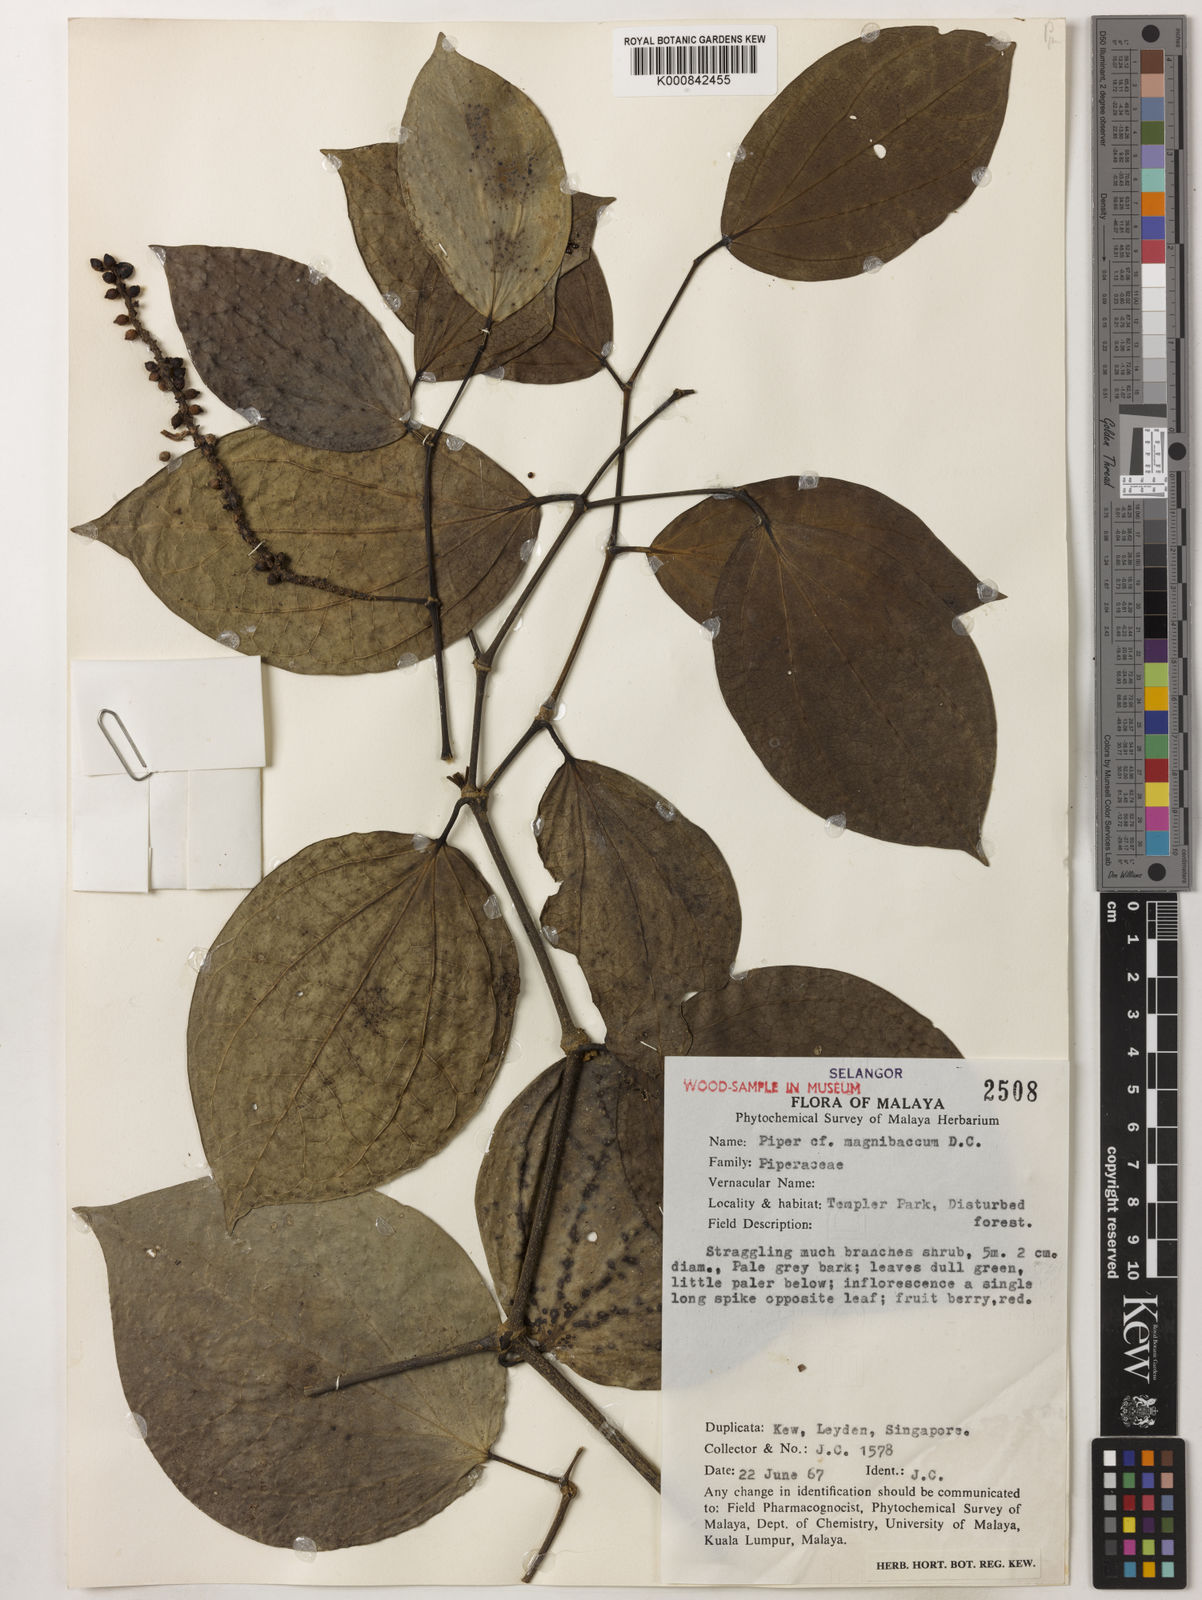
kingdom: Plantae
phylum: Tracheophyta
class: Magnoliopsida
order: Piperales
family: Piperaceae
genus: Piper
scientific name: Piper quinqueangulatum
